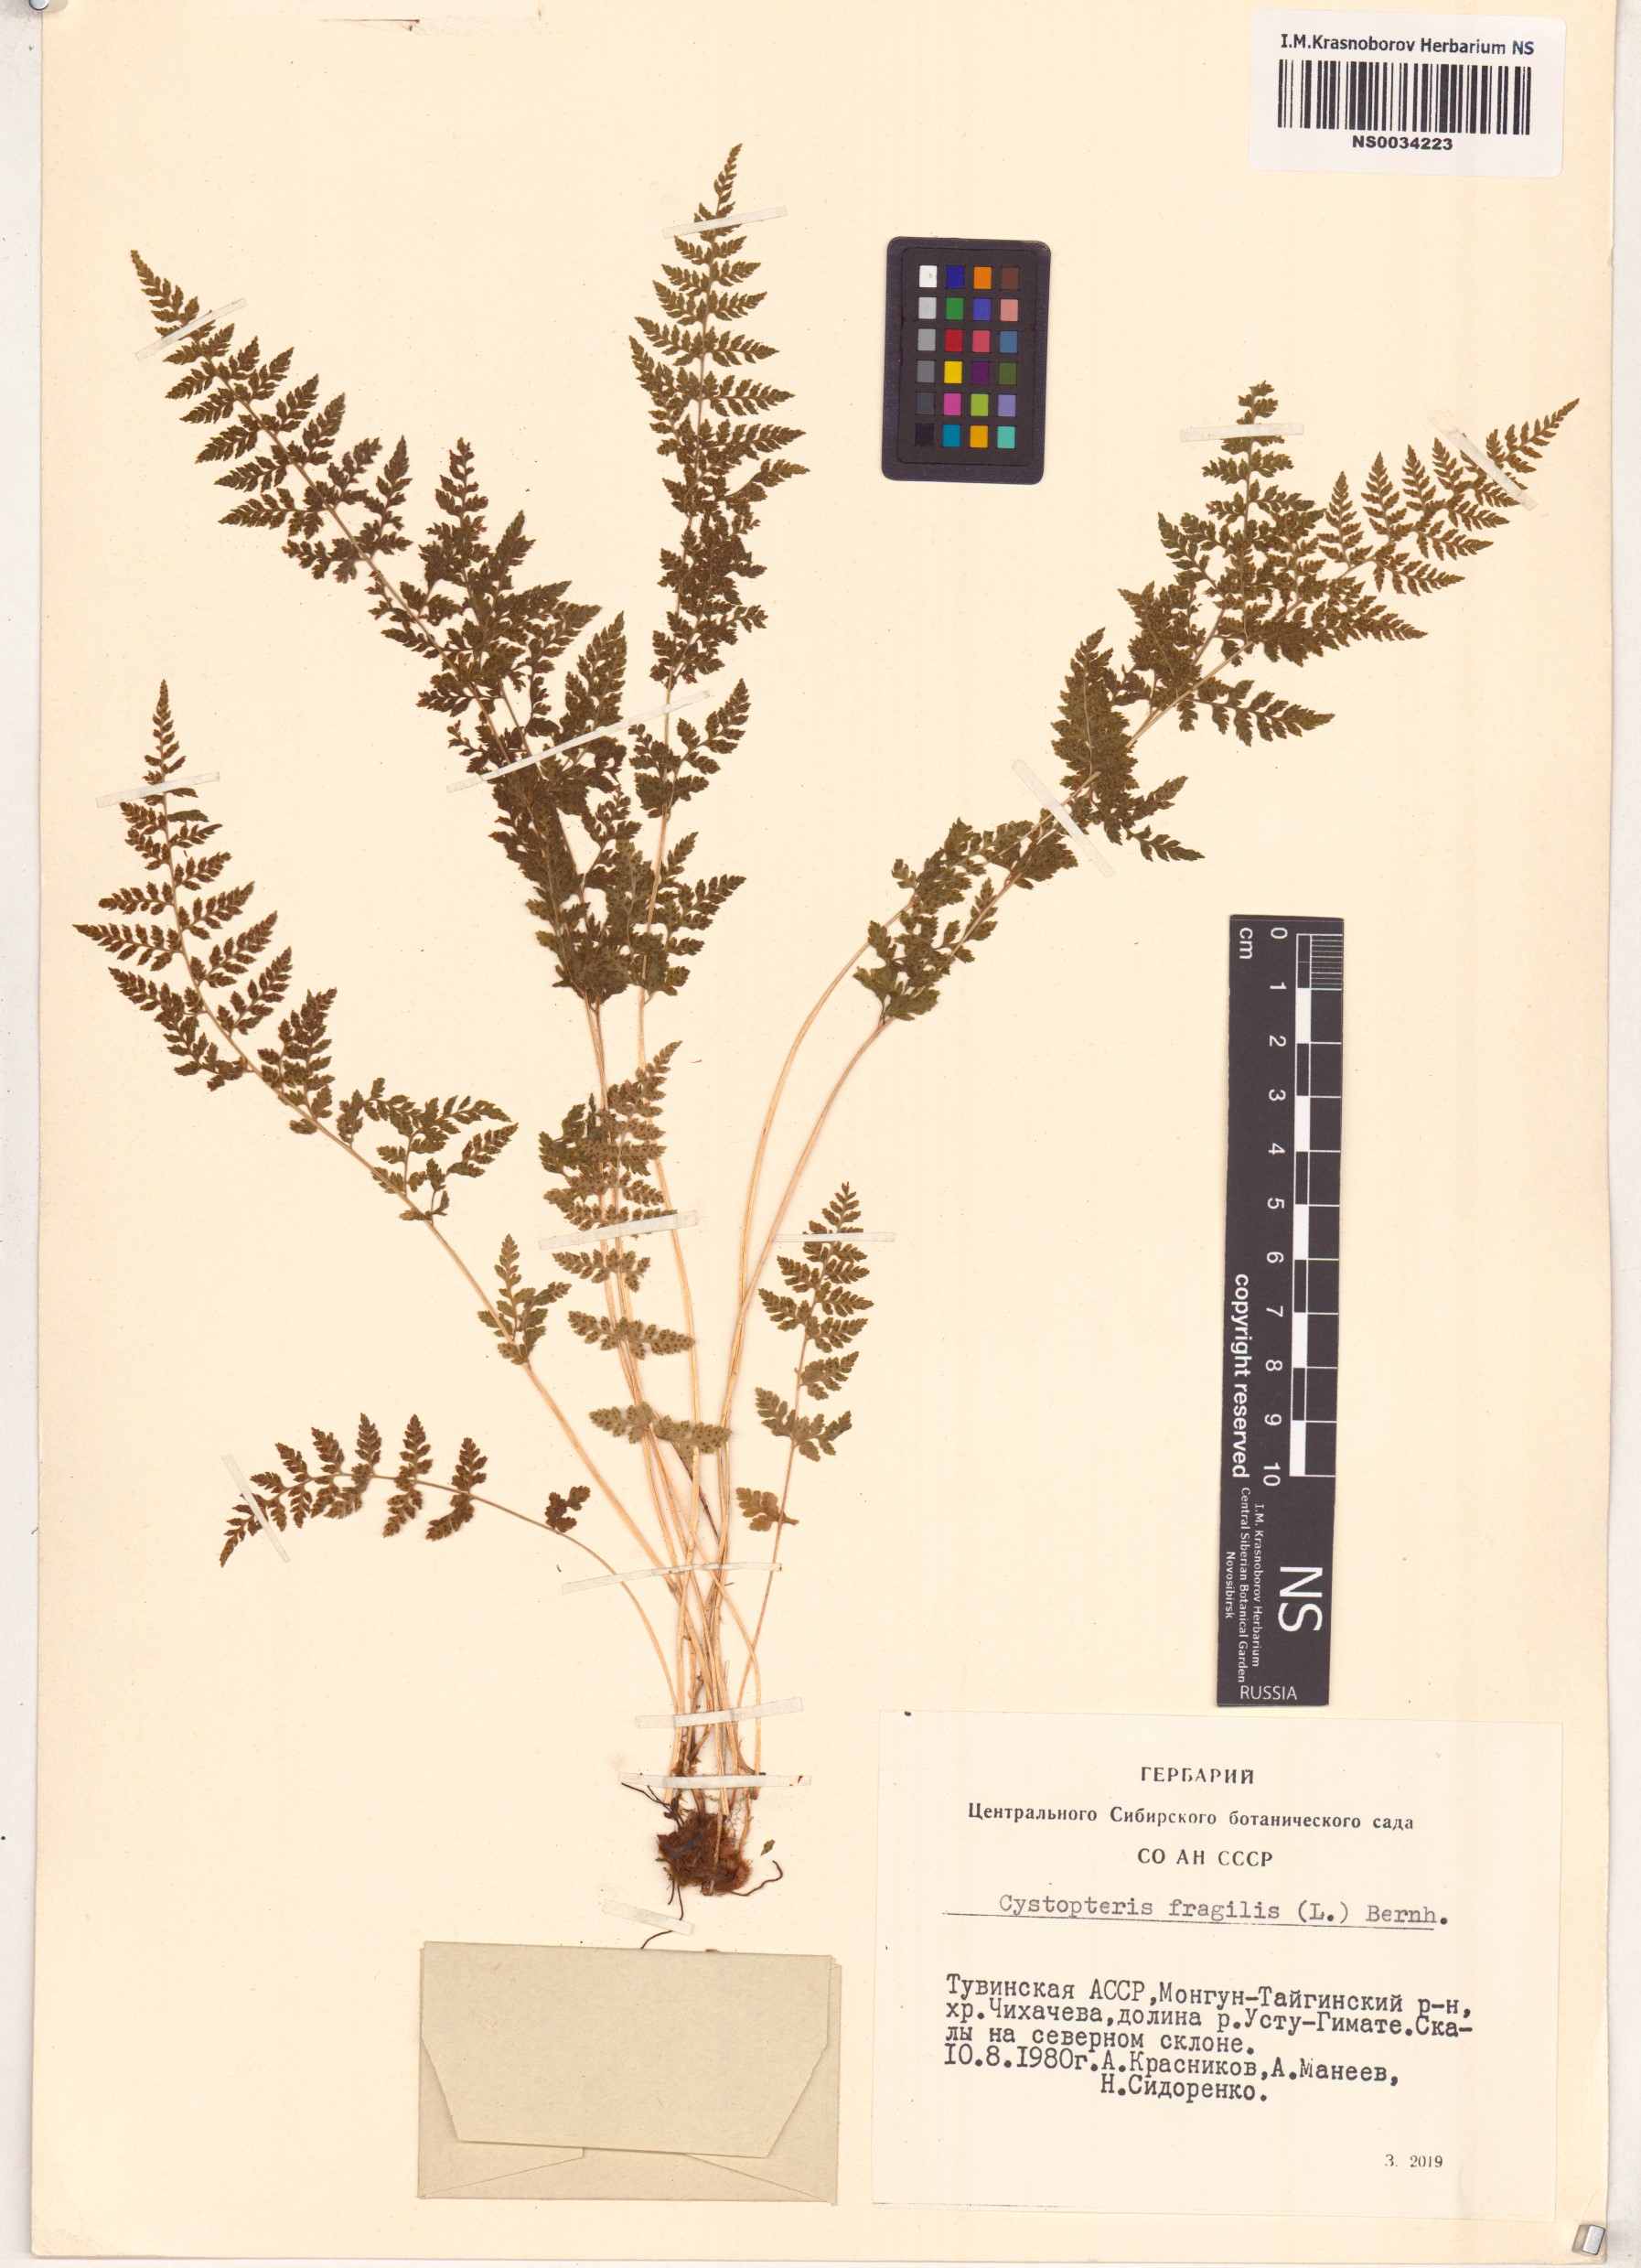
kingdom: Plantae
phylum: Tracheophyta
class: Polypodiopsida
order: Polypodiales
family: Cystopteridaceae
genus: Cystopteris
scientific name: Cystopteris fragilis
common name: Brittle bladder fern
